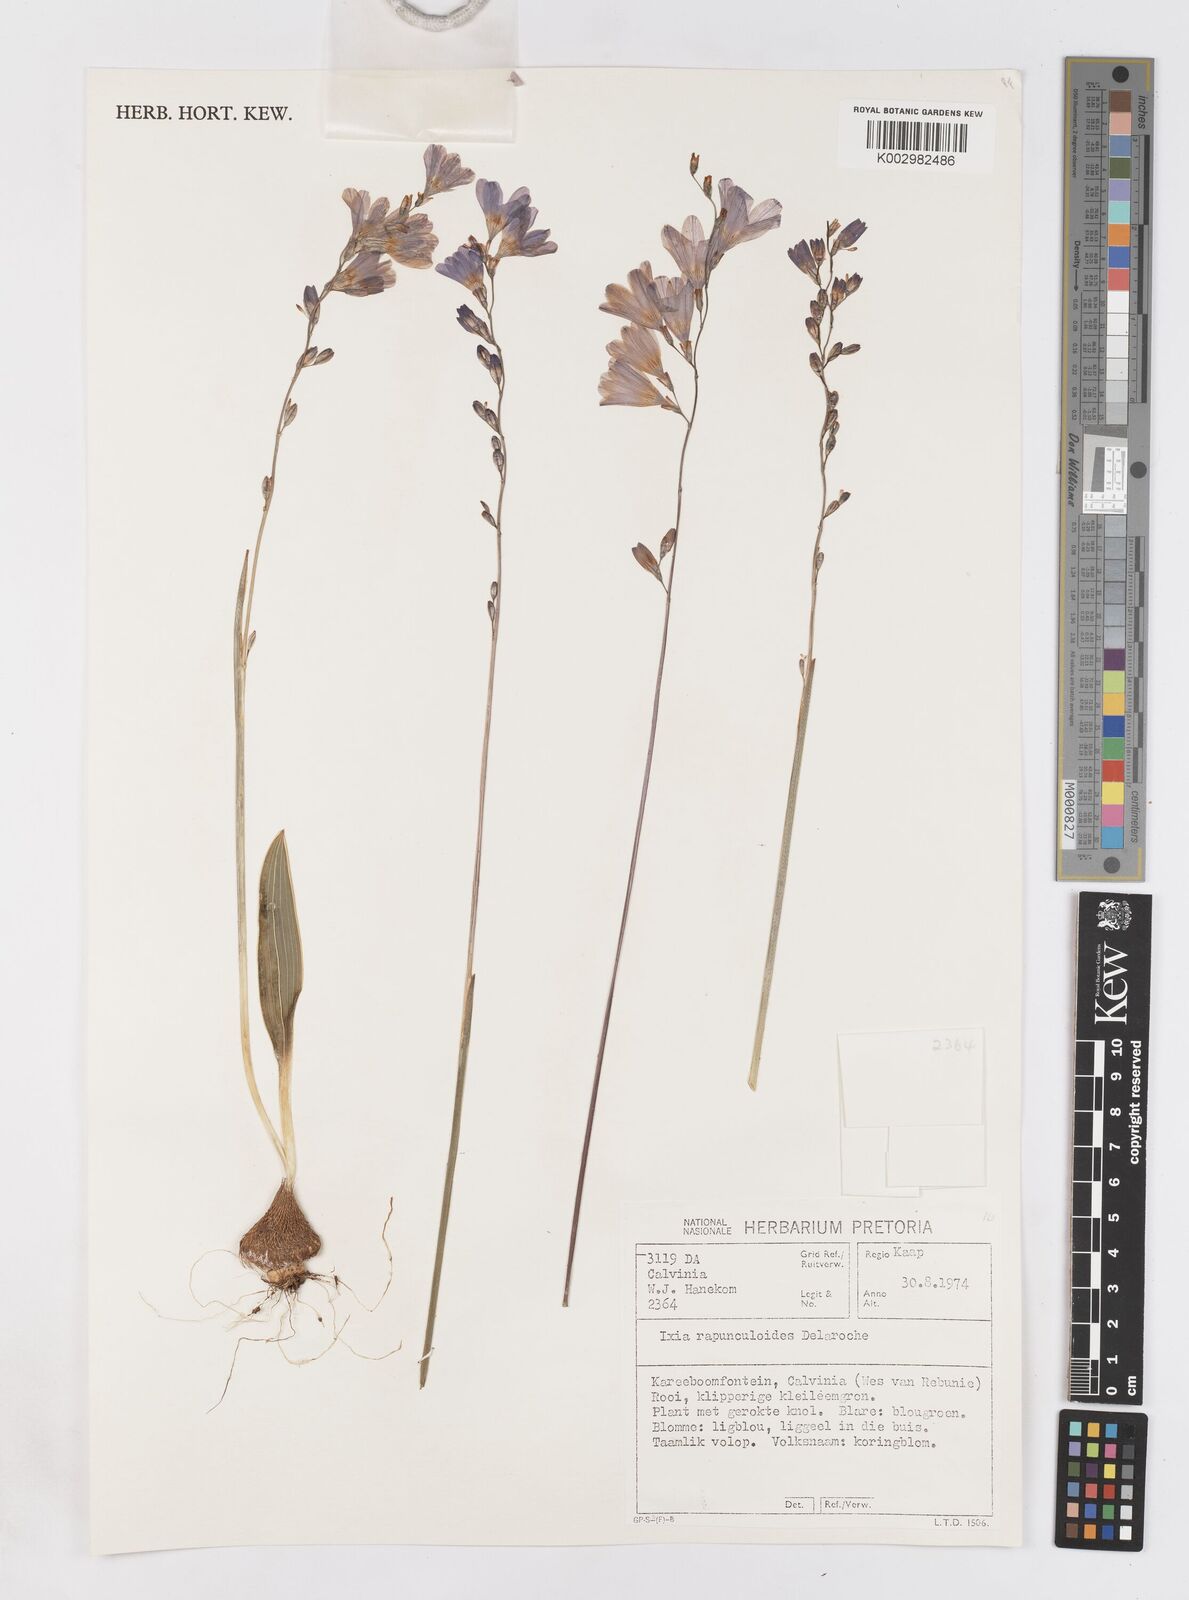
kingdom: Plantae
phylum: Tracheophyta
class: Liliopsida
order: Asparagales
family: Iridaceae
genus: Ixia
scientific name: Ixia rapunculoides
